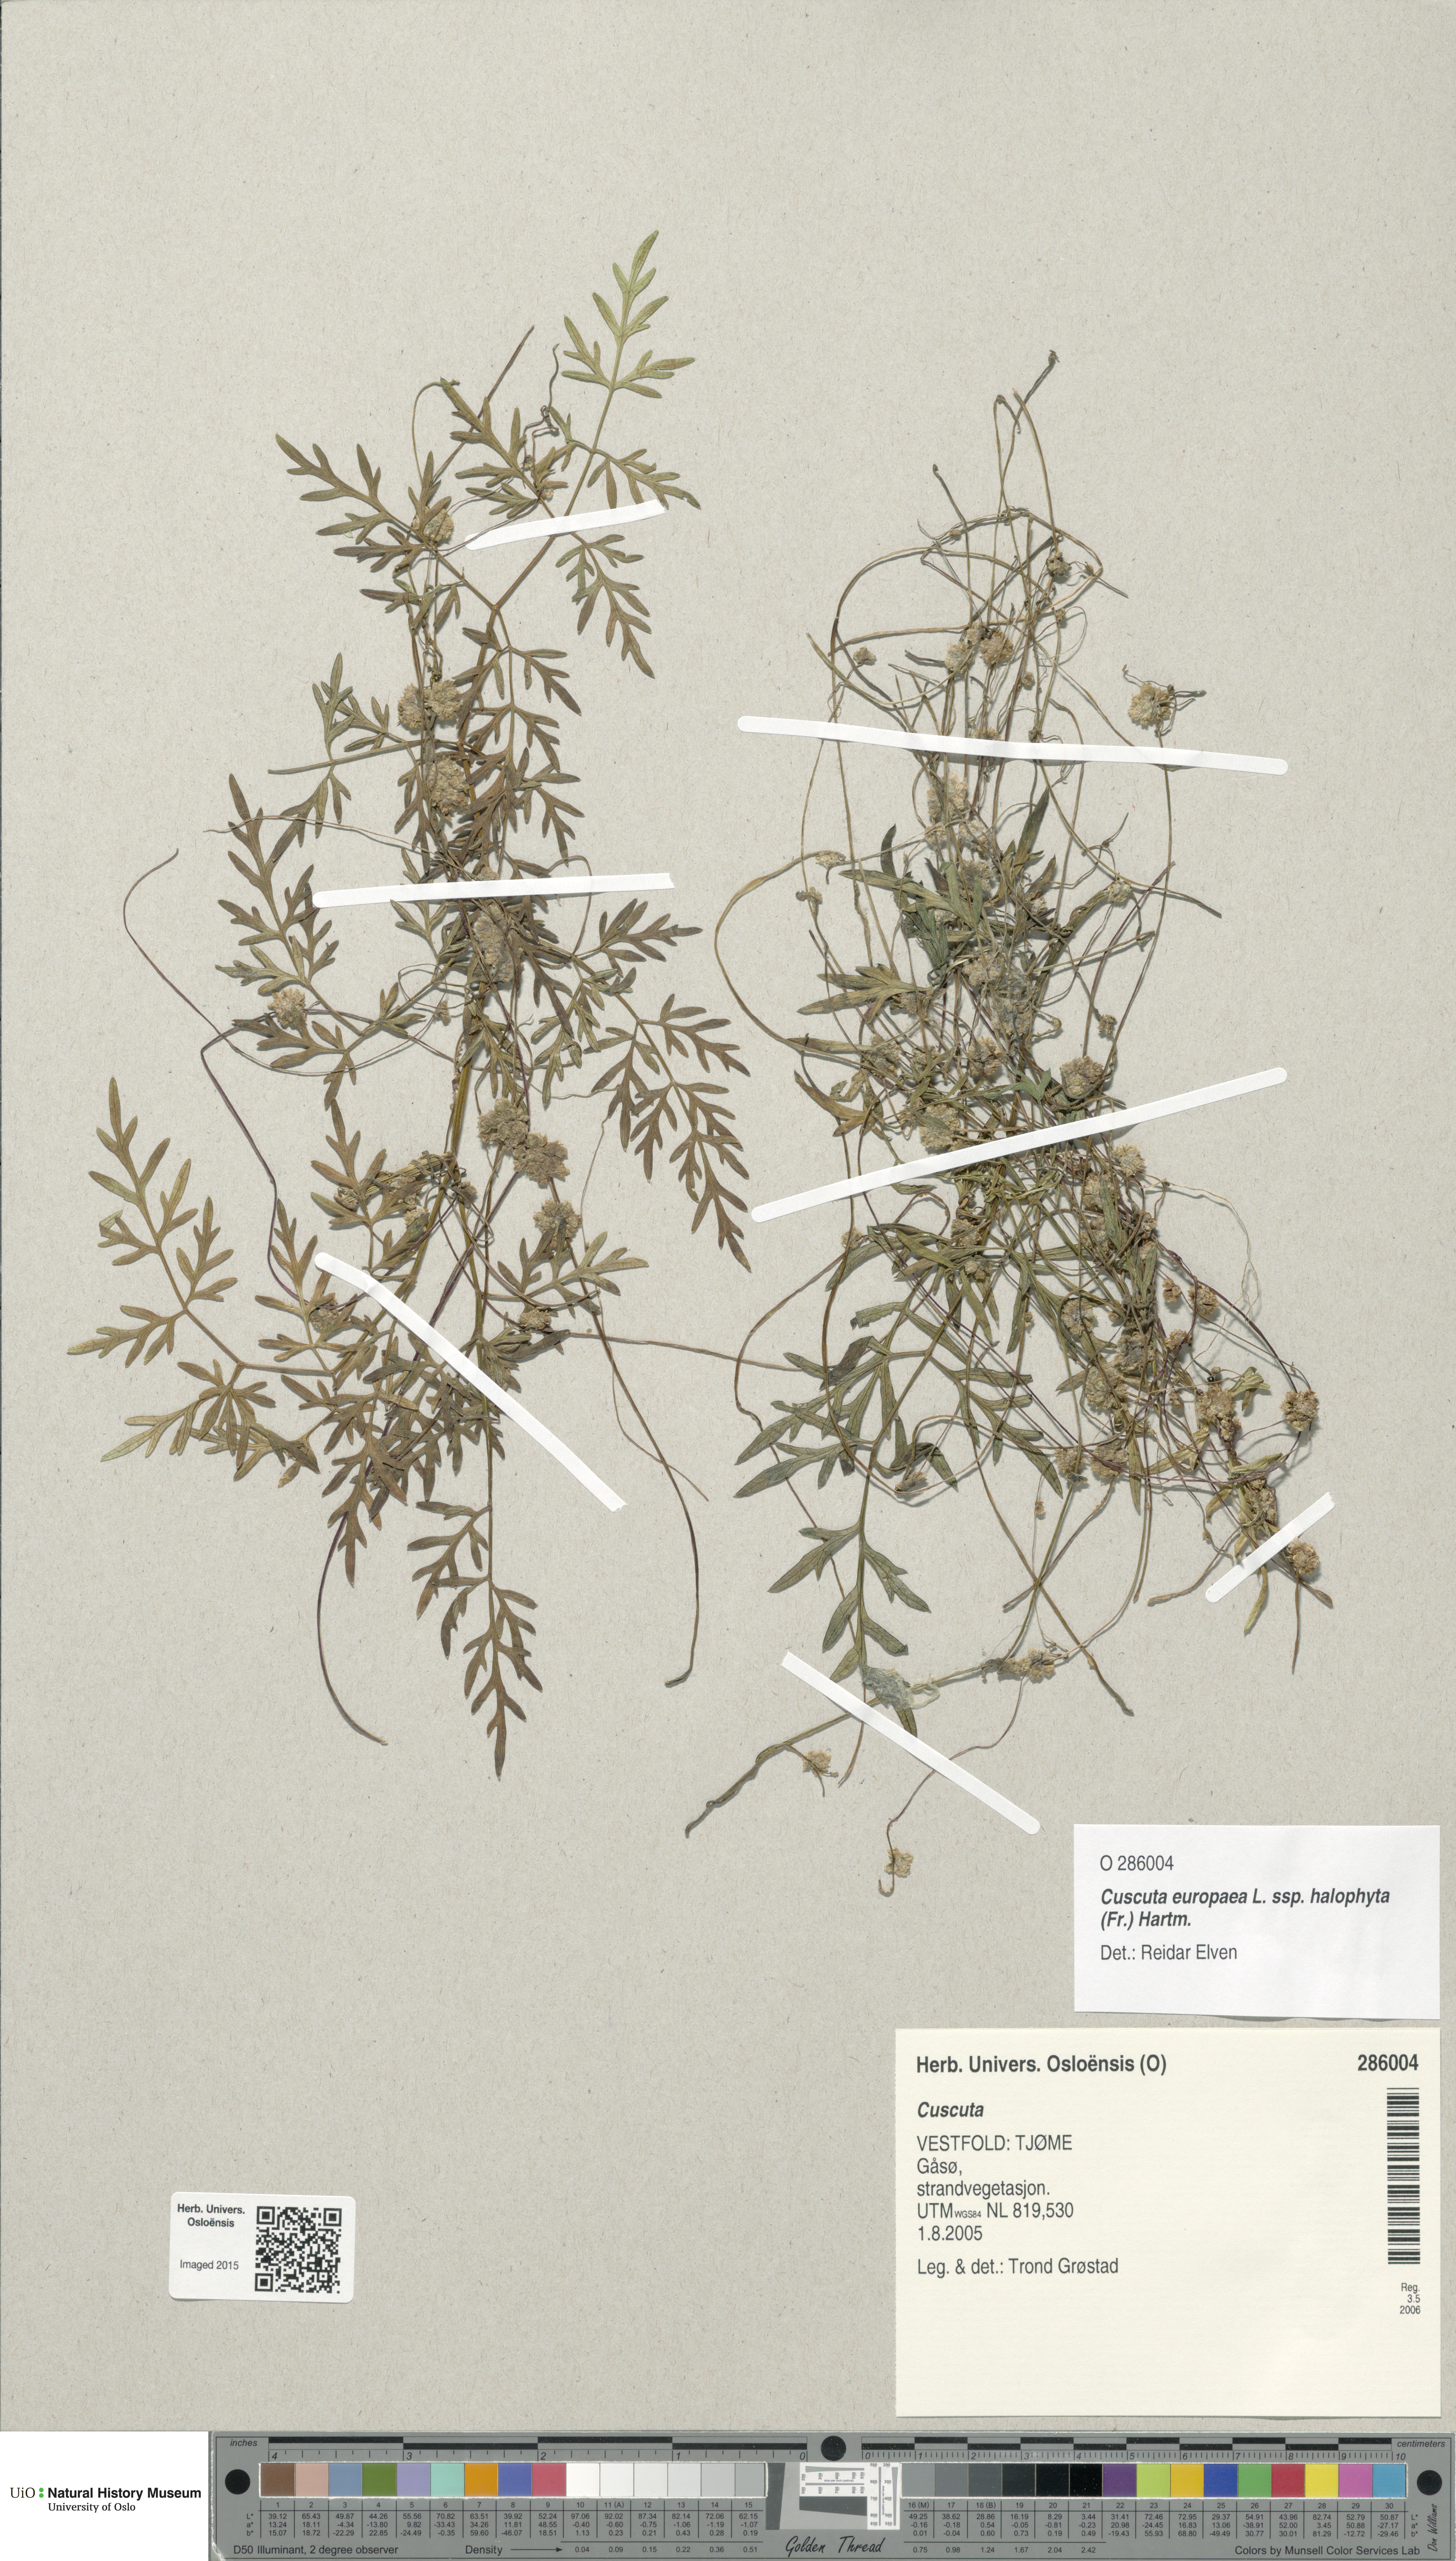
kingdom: Plantae
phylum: Tracheophyta
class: Magnoliopsida
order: Solanales
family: Convolvulaceae
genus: Cuscuta
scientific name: Cuscuta europaea
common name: Greater dodder
